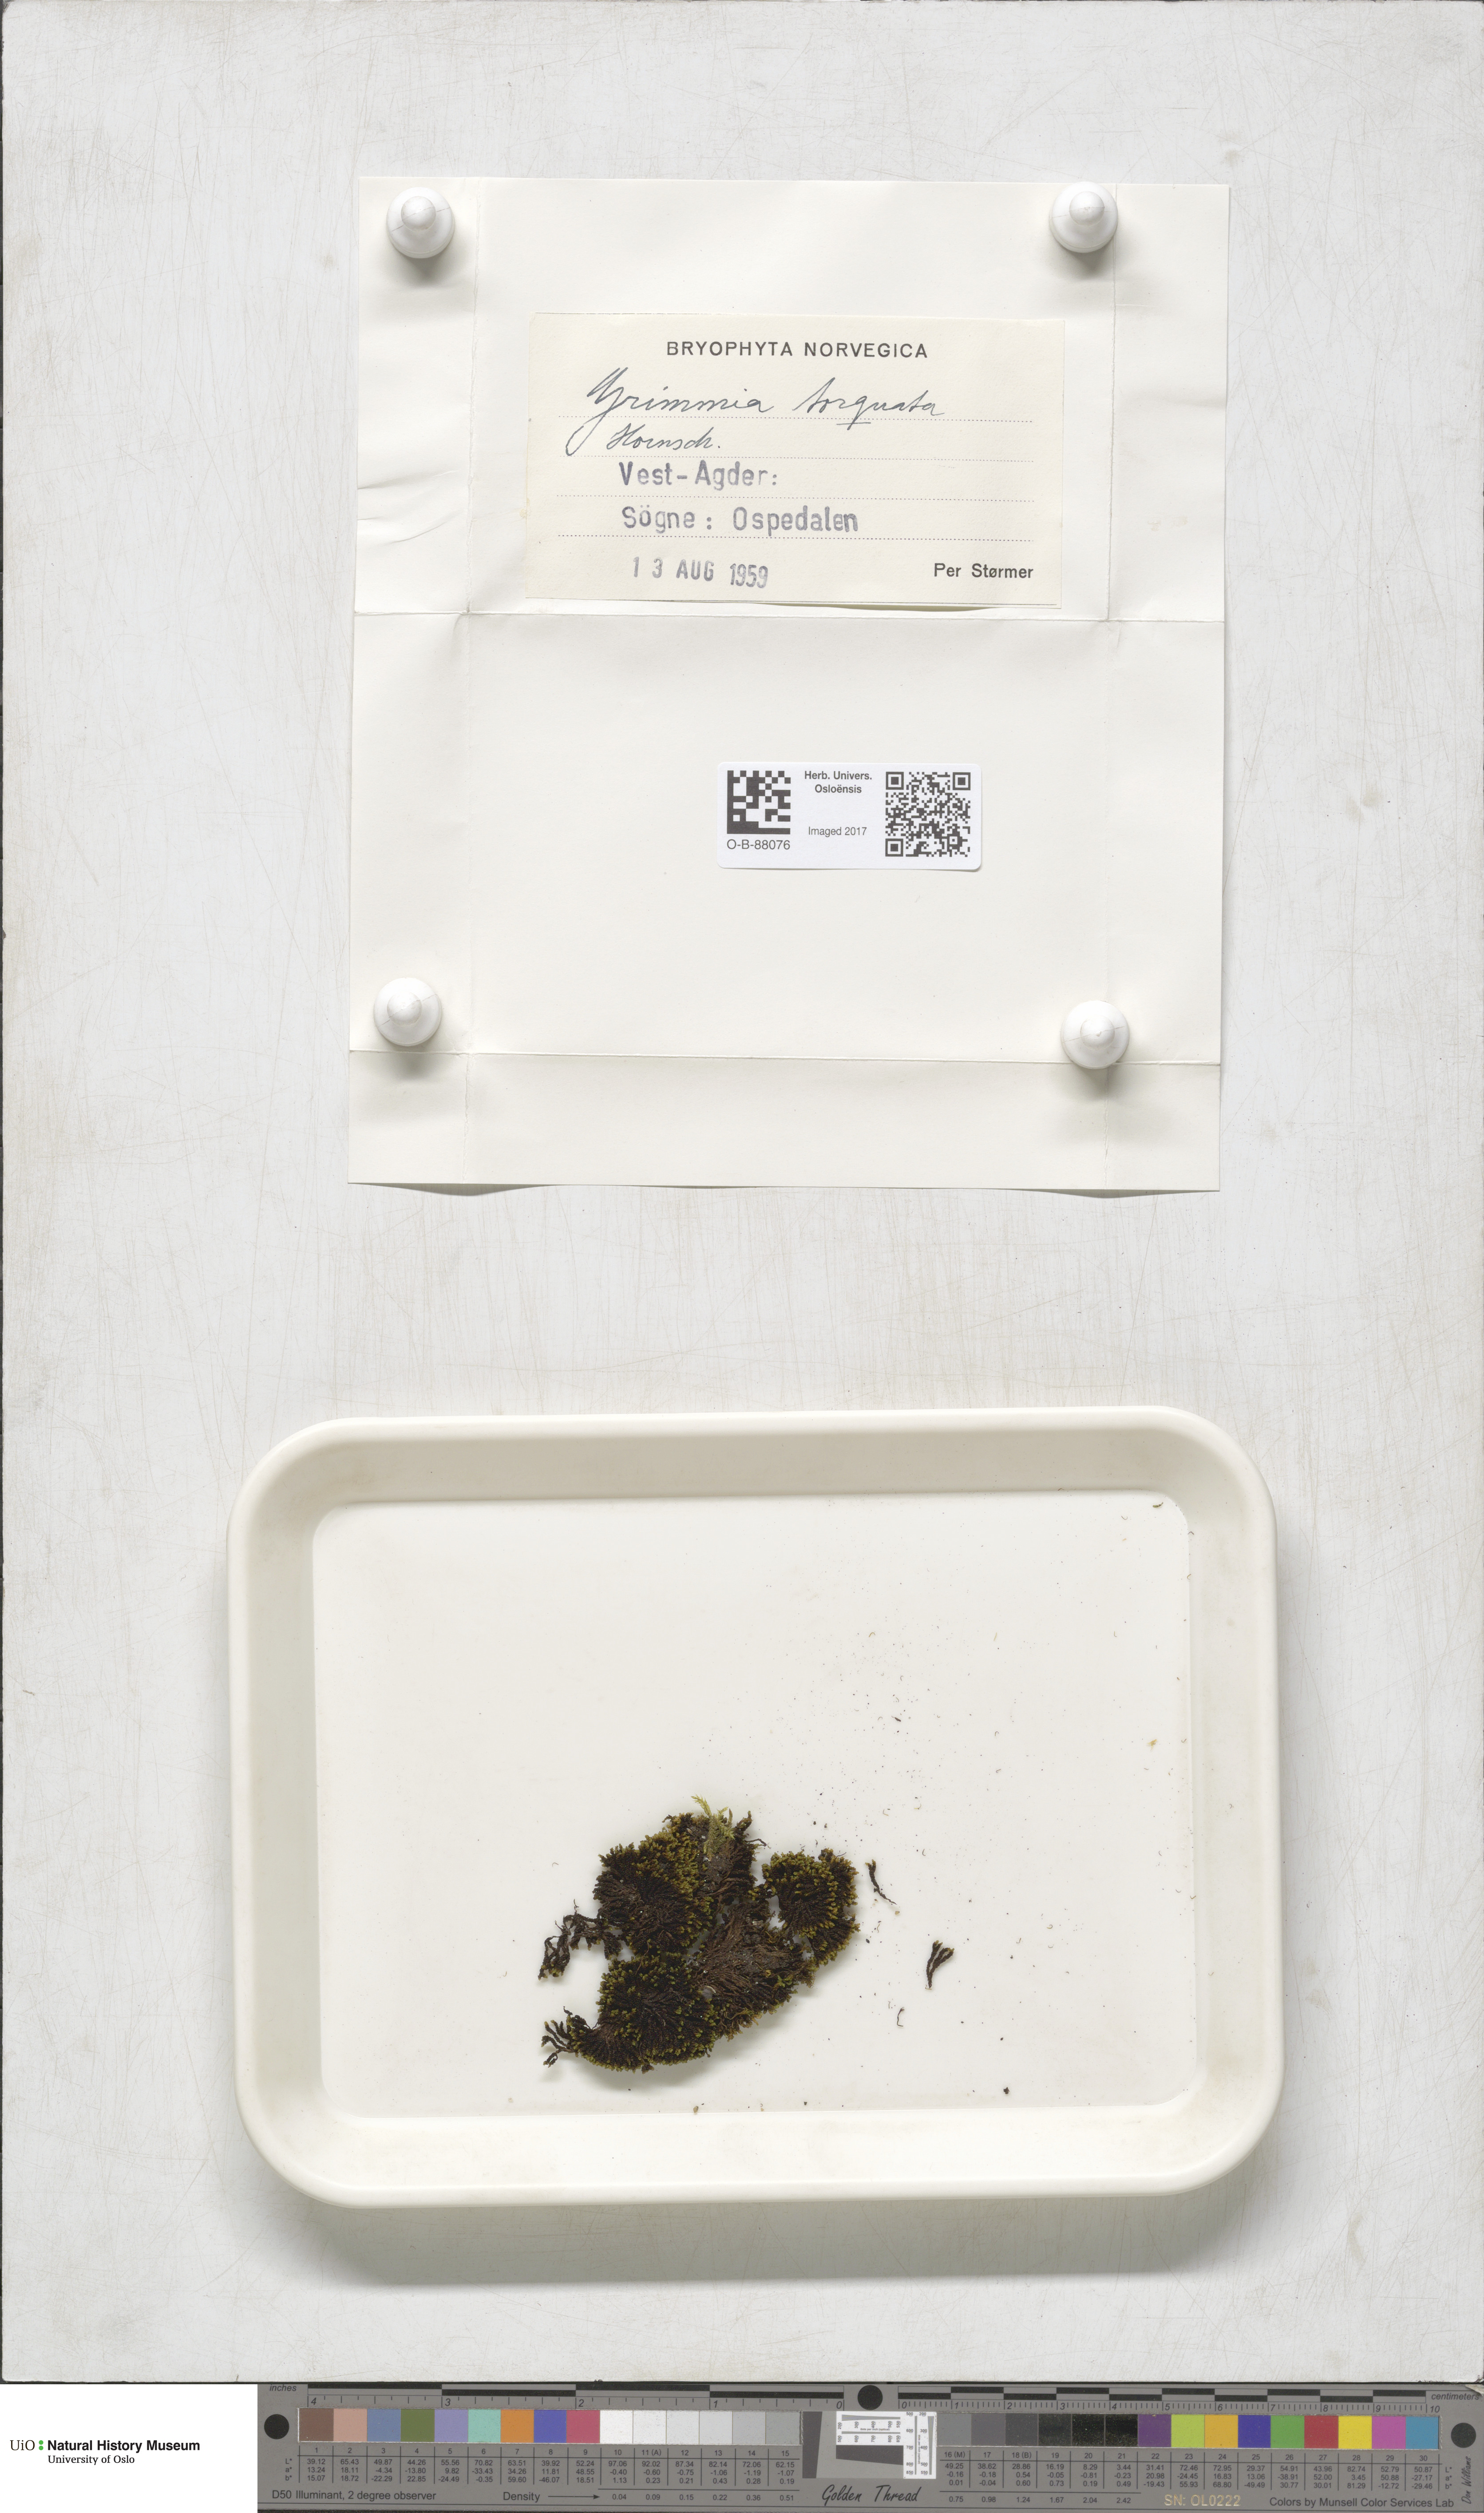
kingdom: Plantae
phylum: Bryophyta
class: Bryopsida
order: Grimmiales
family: Grimmiaceae
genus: Grimmia
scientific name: Grimmia torquata
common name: Twisted grimmia
